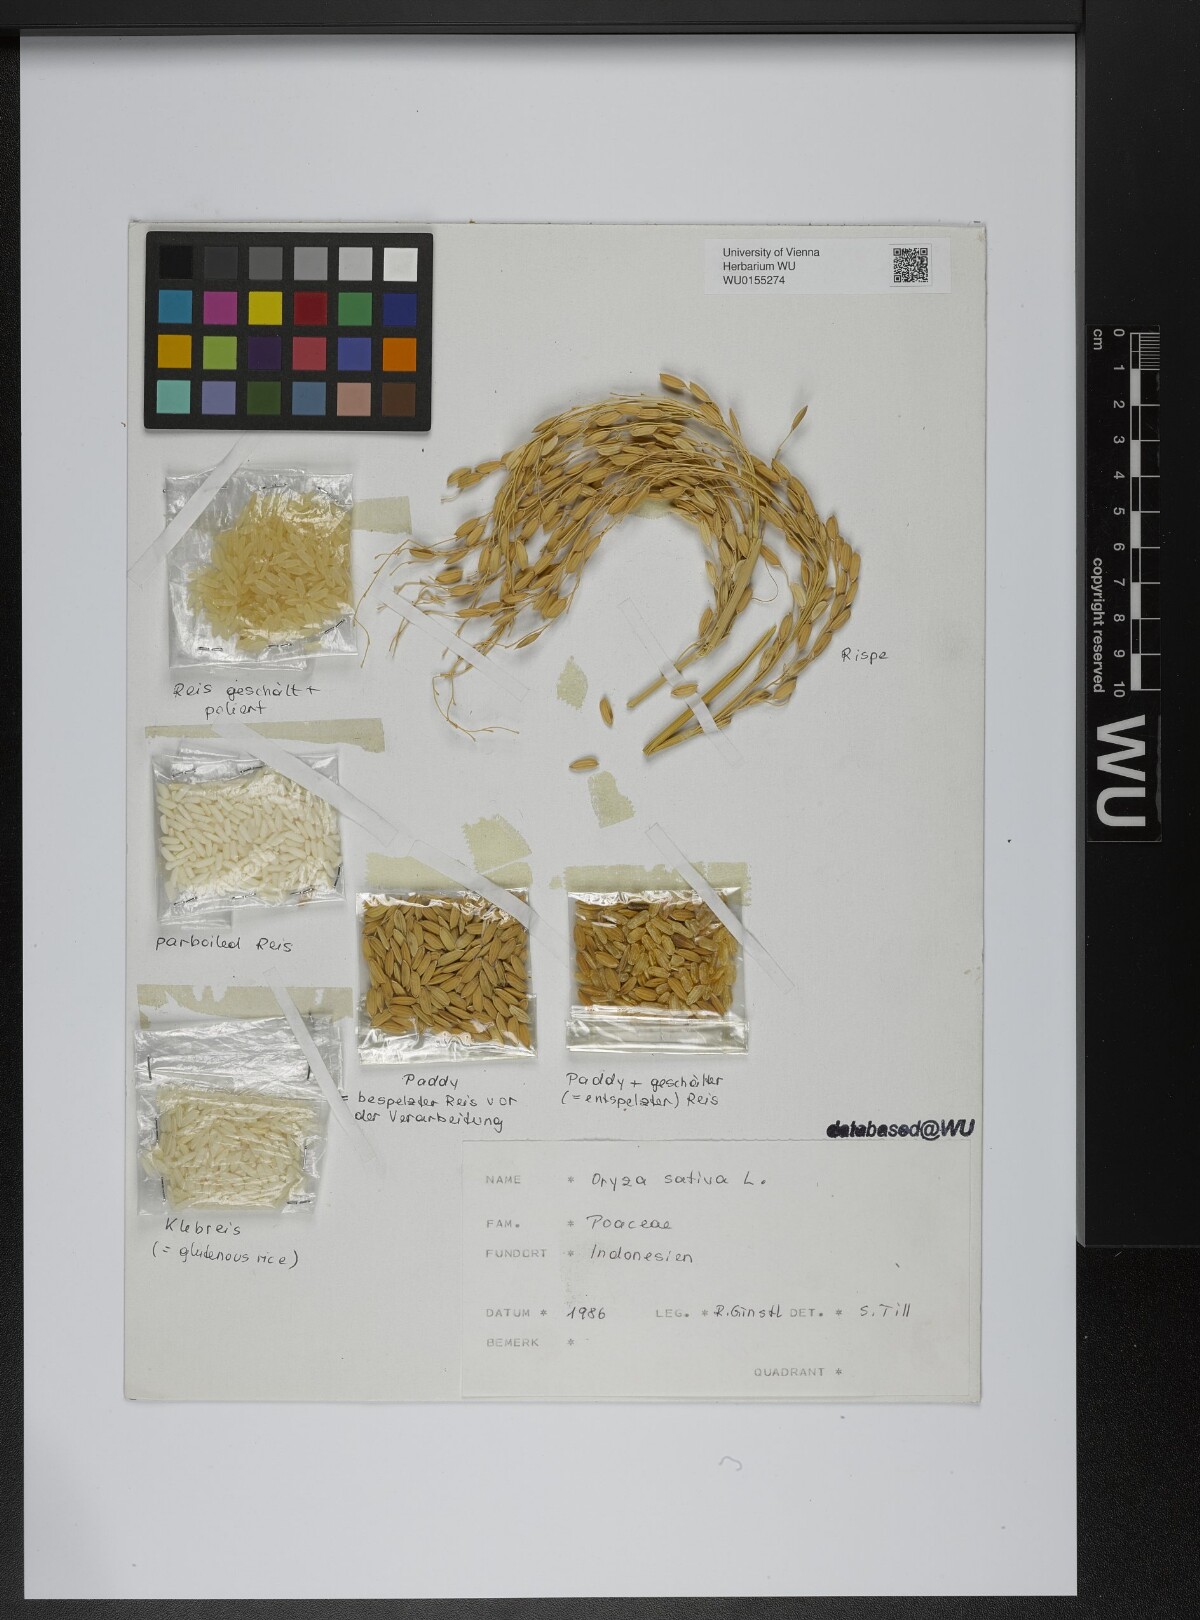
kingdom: Plantae
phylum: Tracheophyta
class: Liliopsida
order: Poales
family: Poaceae
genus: Oryza
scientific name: Oryza sativa
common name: Rice
